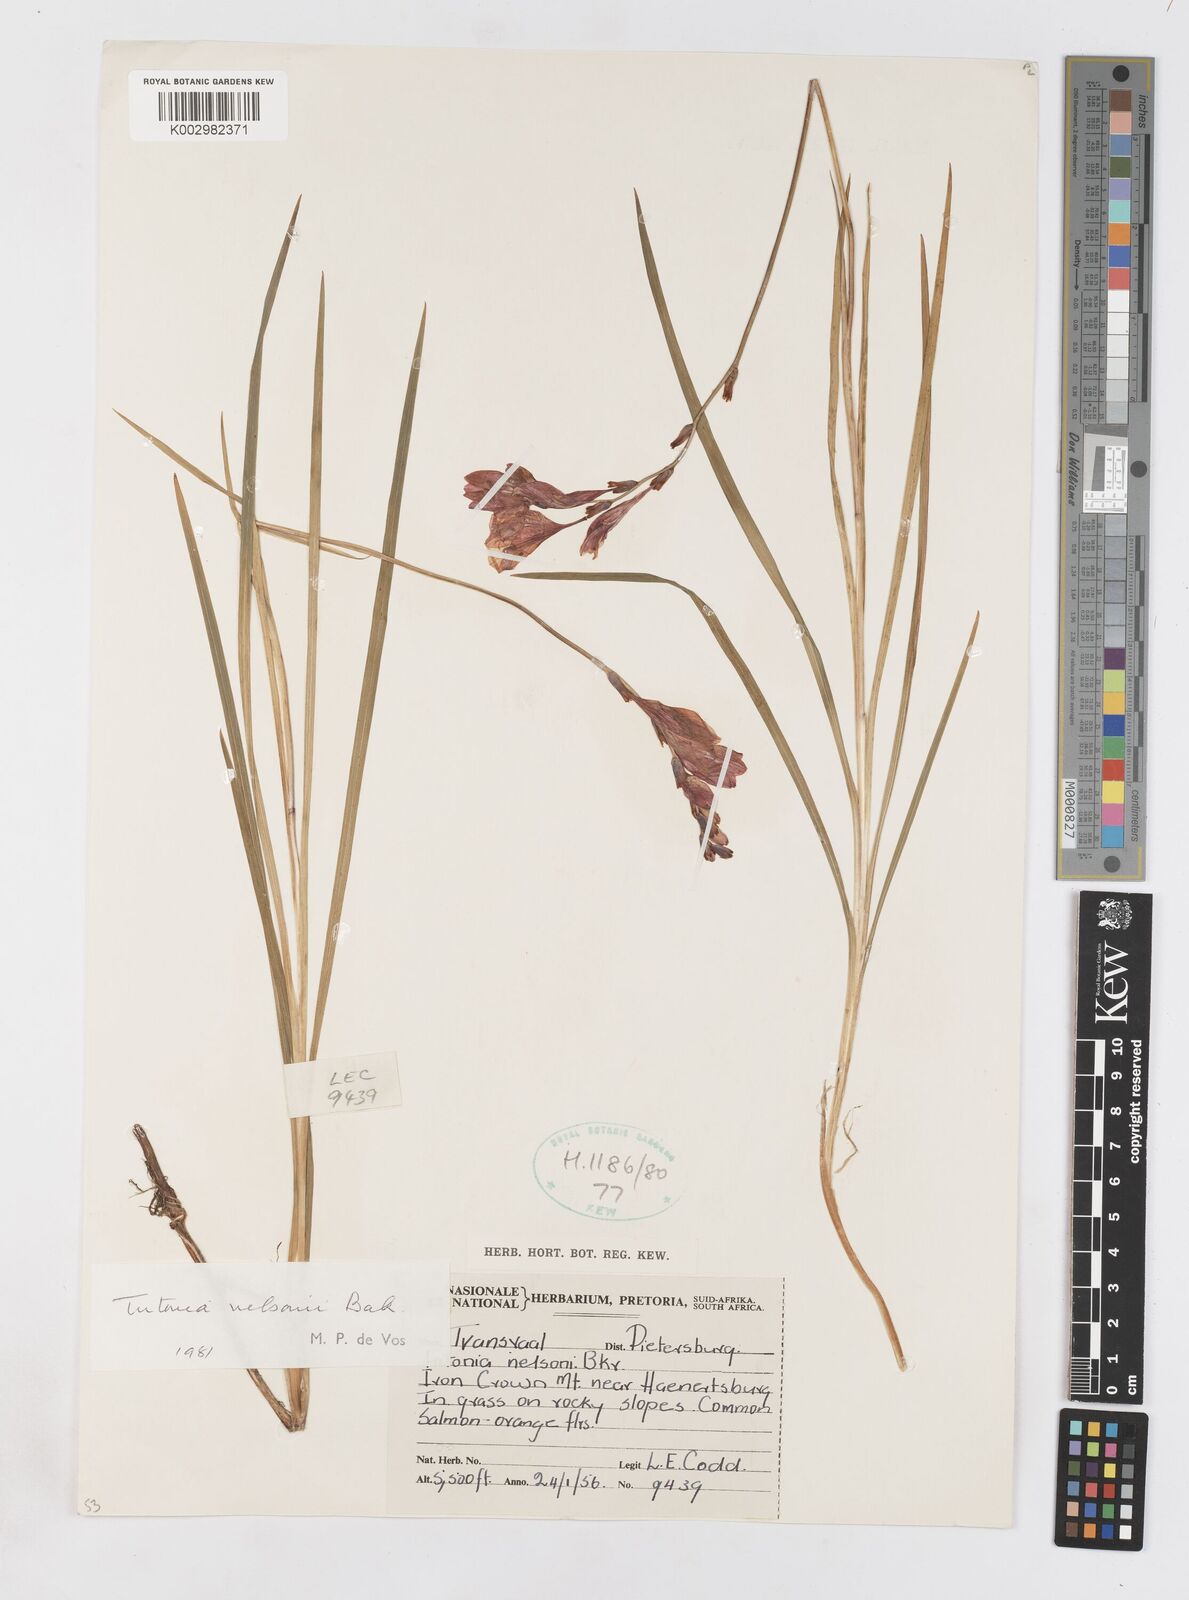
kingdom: Plantae
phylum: Tracheophyta
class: Liliopsida
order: Asparagales
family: Iridaceae
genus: Tritonia
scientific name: Tritonia nelsonii
